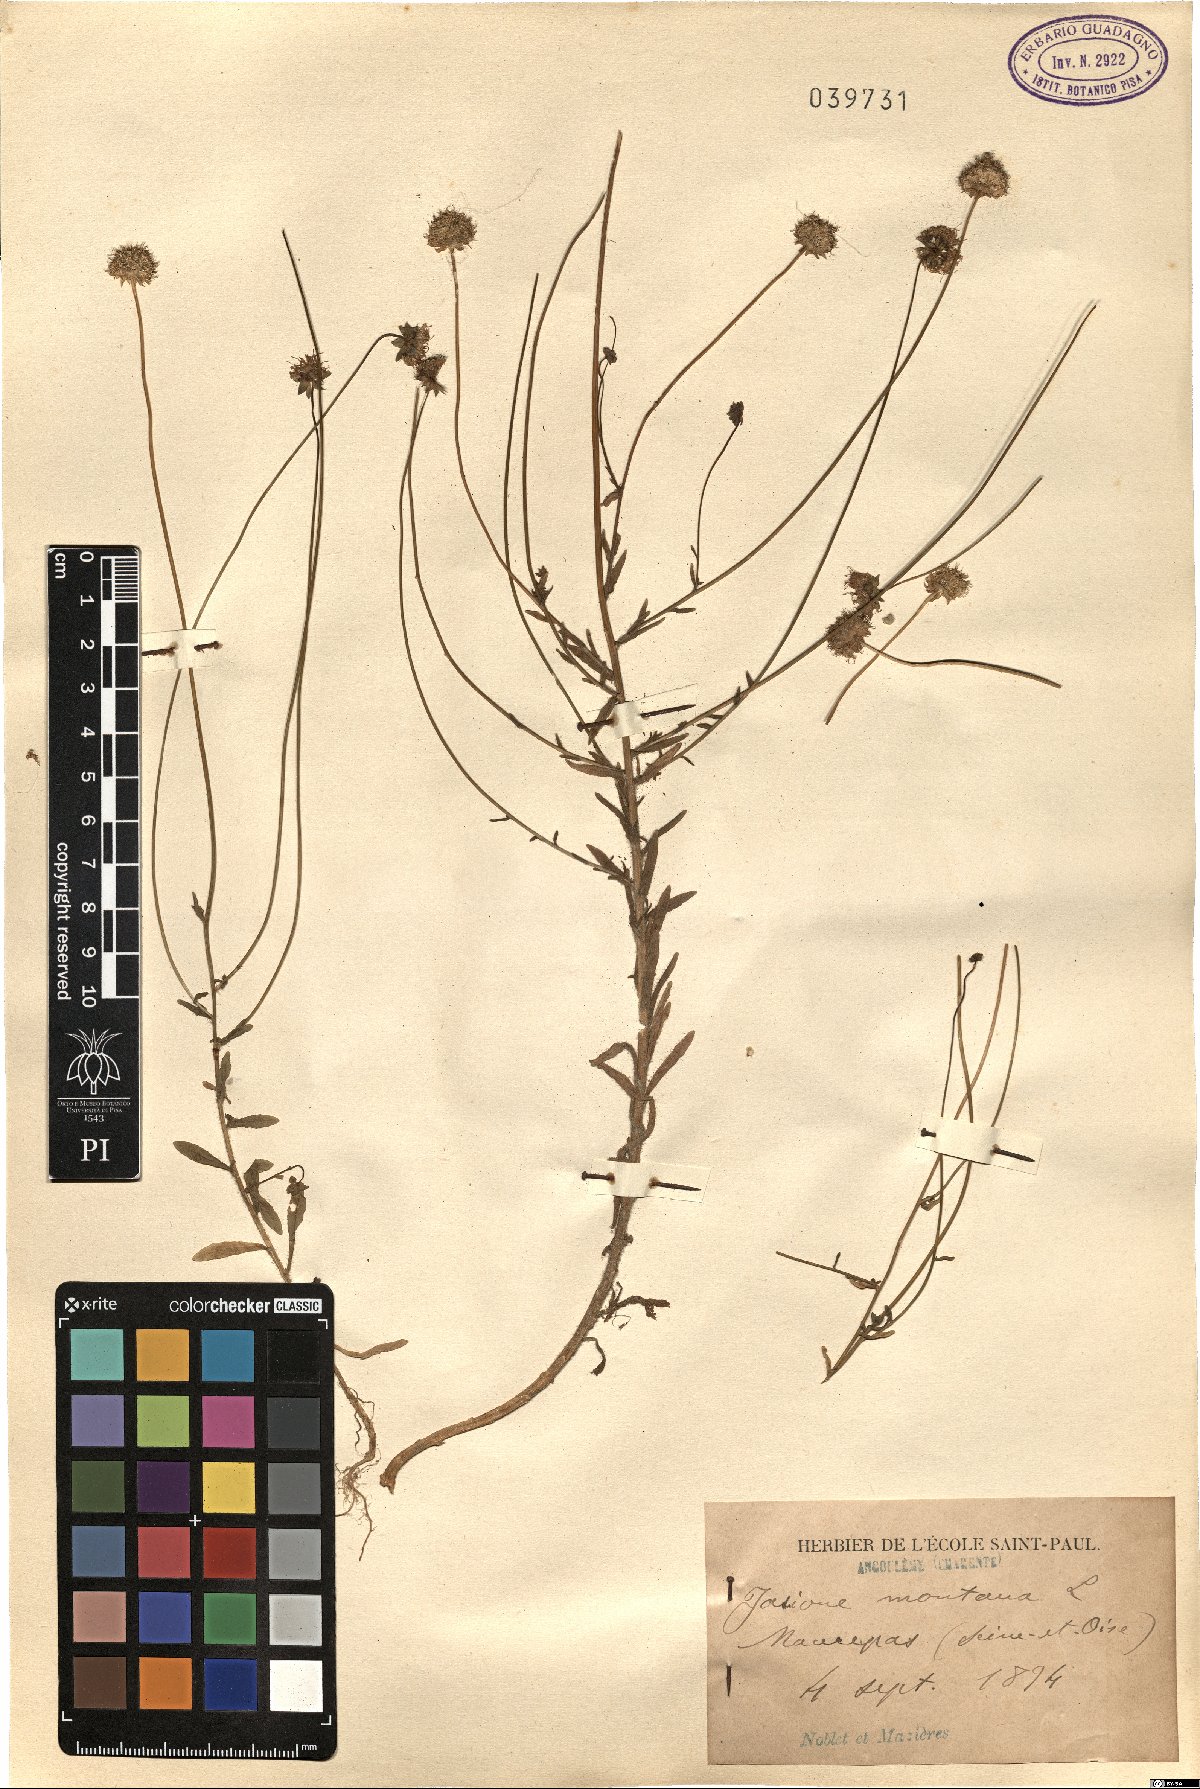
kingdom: Plantae
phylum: Tracheophyta
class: Magnoliopsida
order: Asterales
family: Campanulaceae
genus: Jasione
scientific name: Jasione montana
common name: Sheep's-bit
